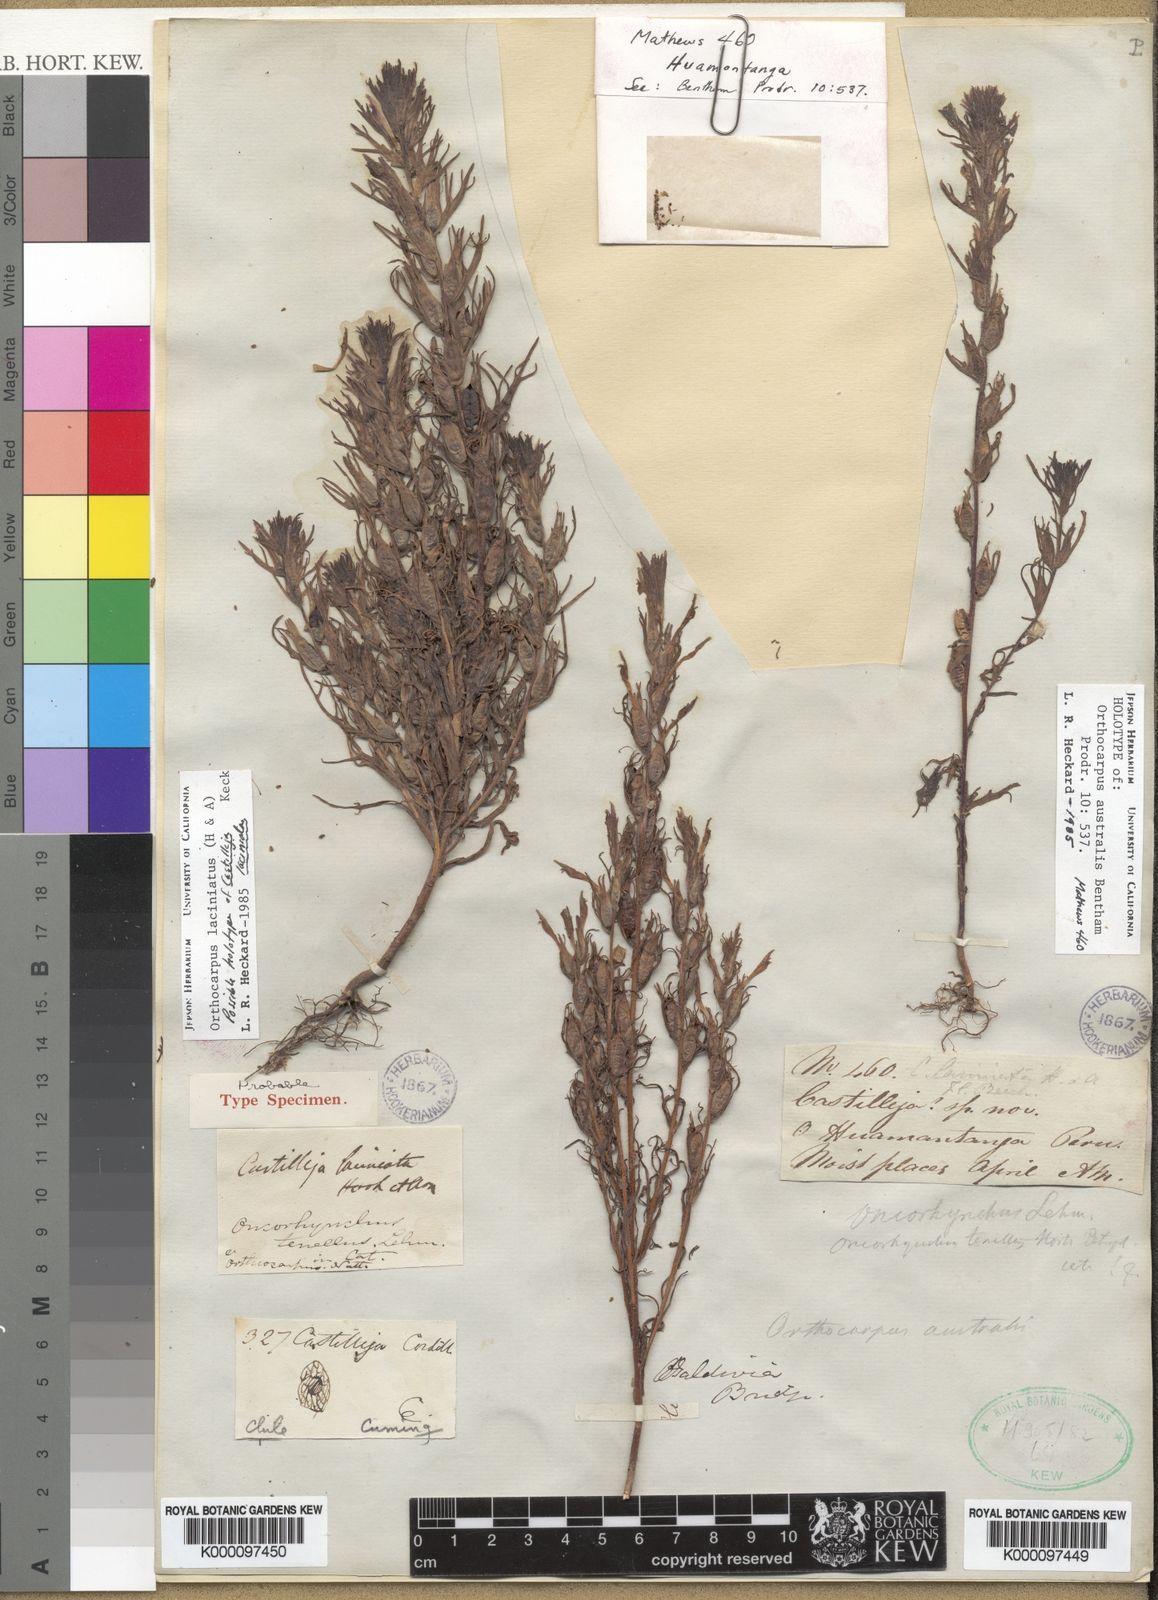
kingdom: Plantae
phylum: Tracheophyta
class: Magnoliopsida
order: Lamiales
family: Orobanchaceae
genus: Castilleja
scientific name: Castilleja laciniata
